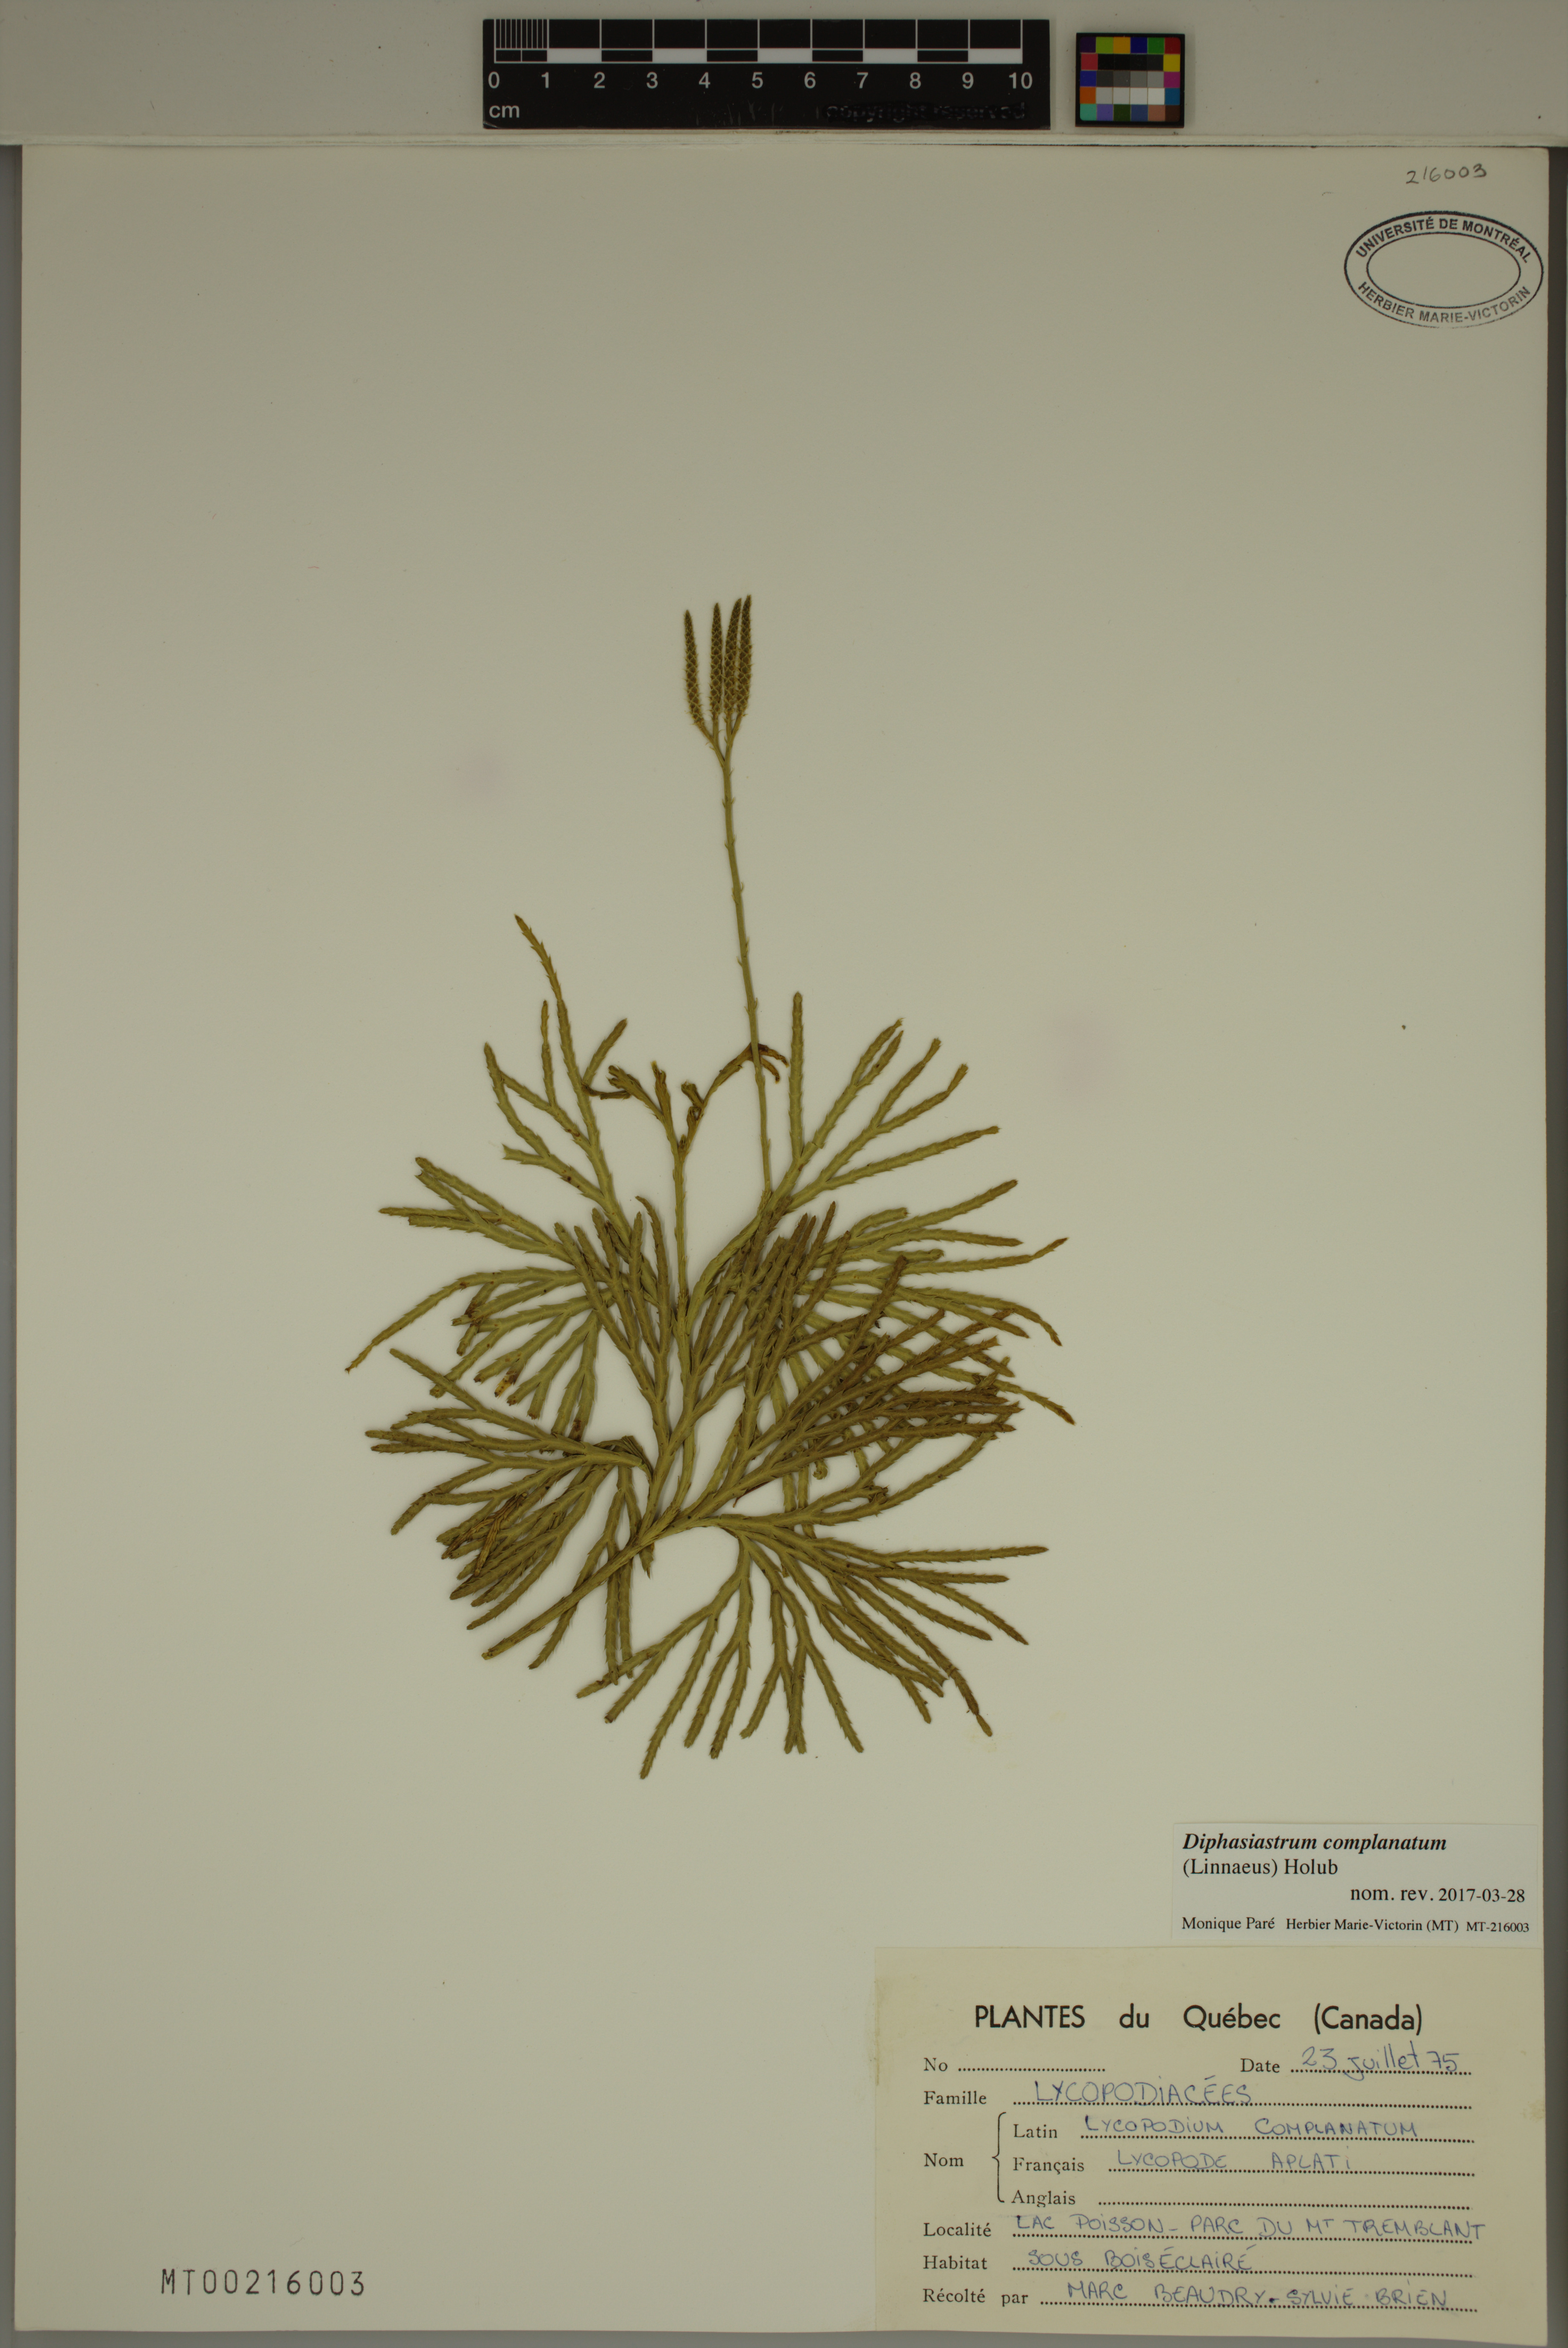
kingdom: Plantae
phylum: Tracheophyta
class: Lycopodiopsida
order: Lycopodiales
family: Lycopodiaceae
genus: Diphasiastrum
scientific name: Diphasiastrum complanatum
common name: Northern running-pine
